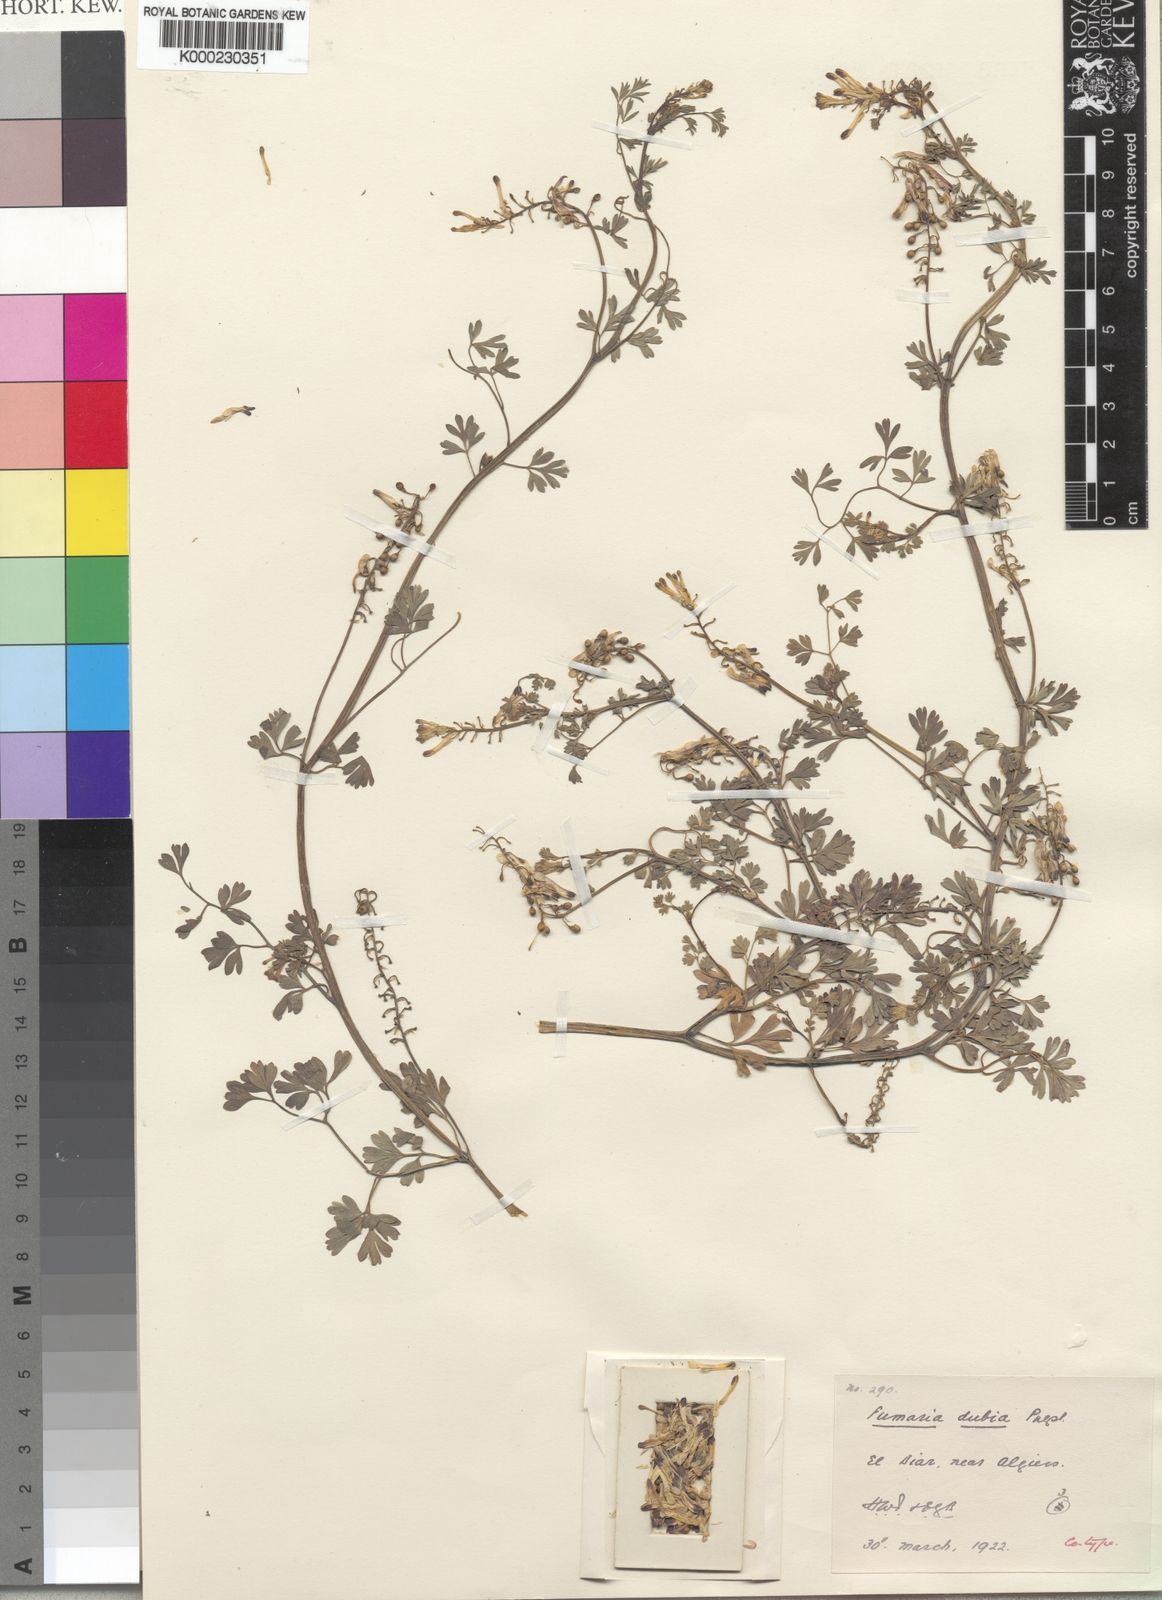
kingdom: Plantae
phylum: Tracheophyta
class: Magnoliopsida
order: Ranunculales
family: Papaveraceae
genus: Fumaria
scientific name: Fumaria dubia
